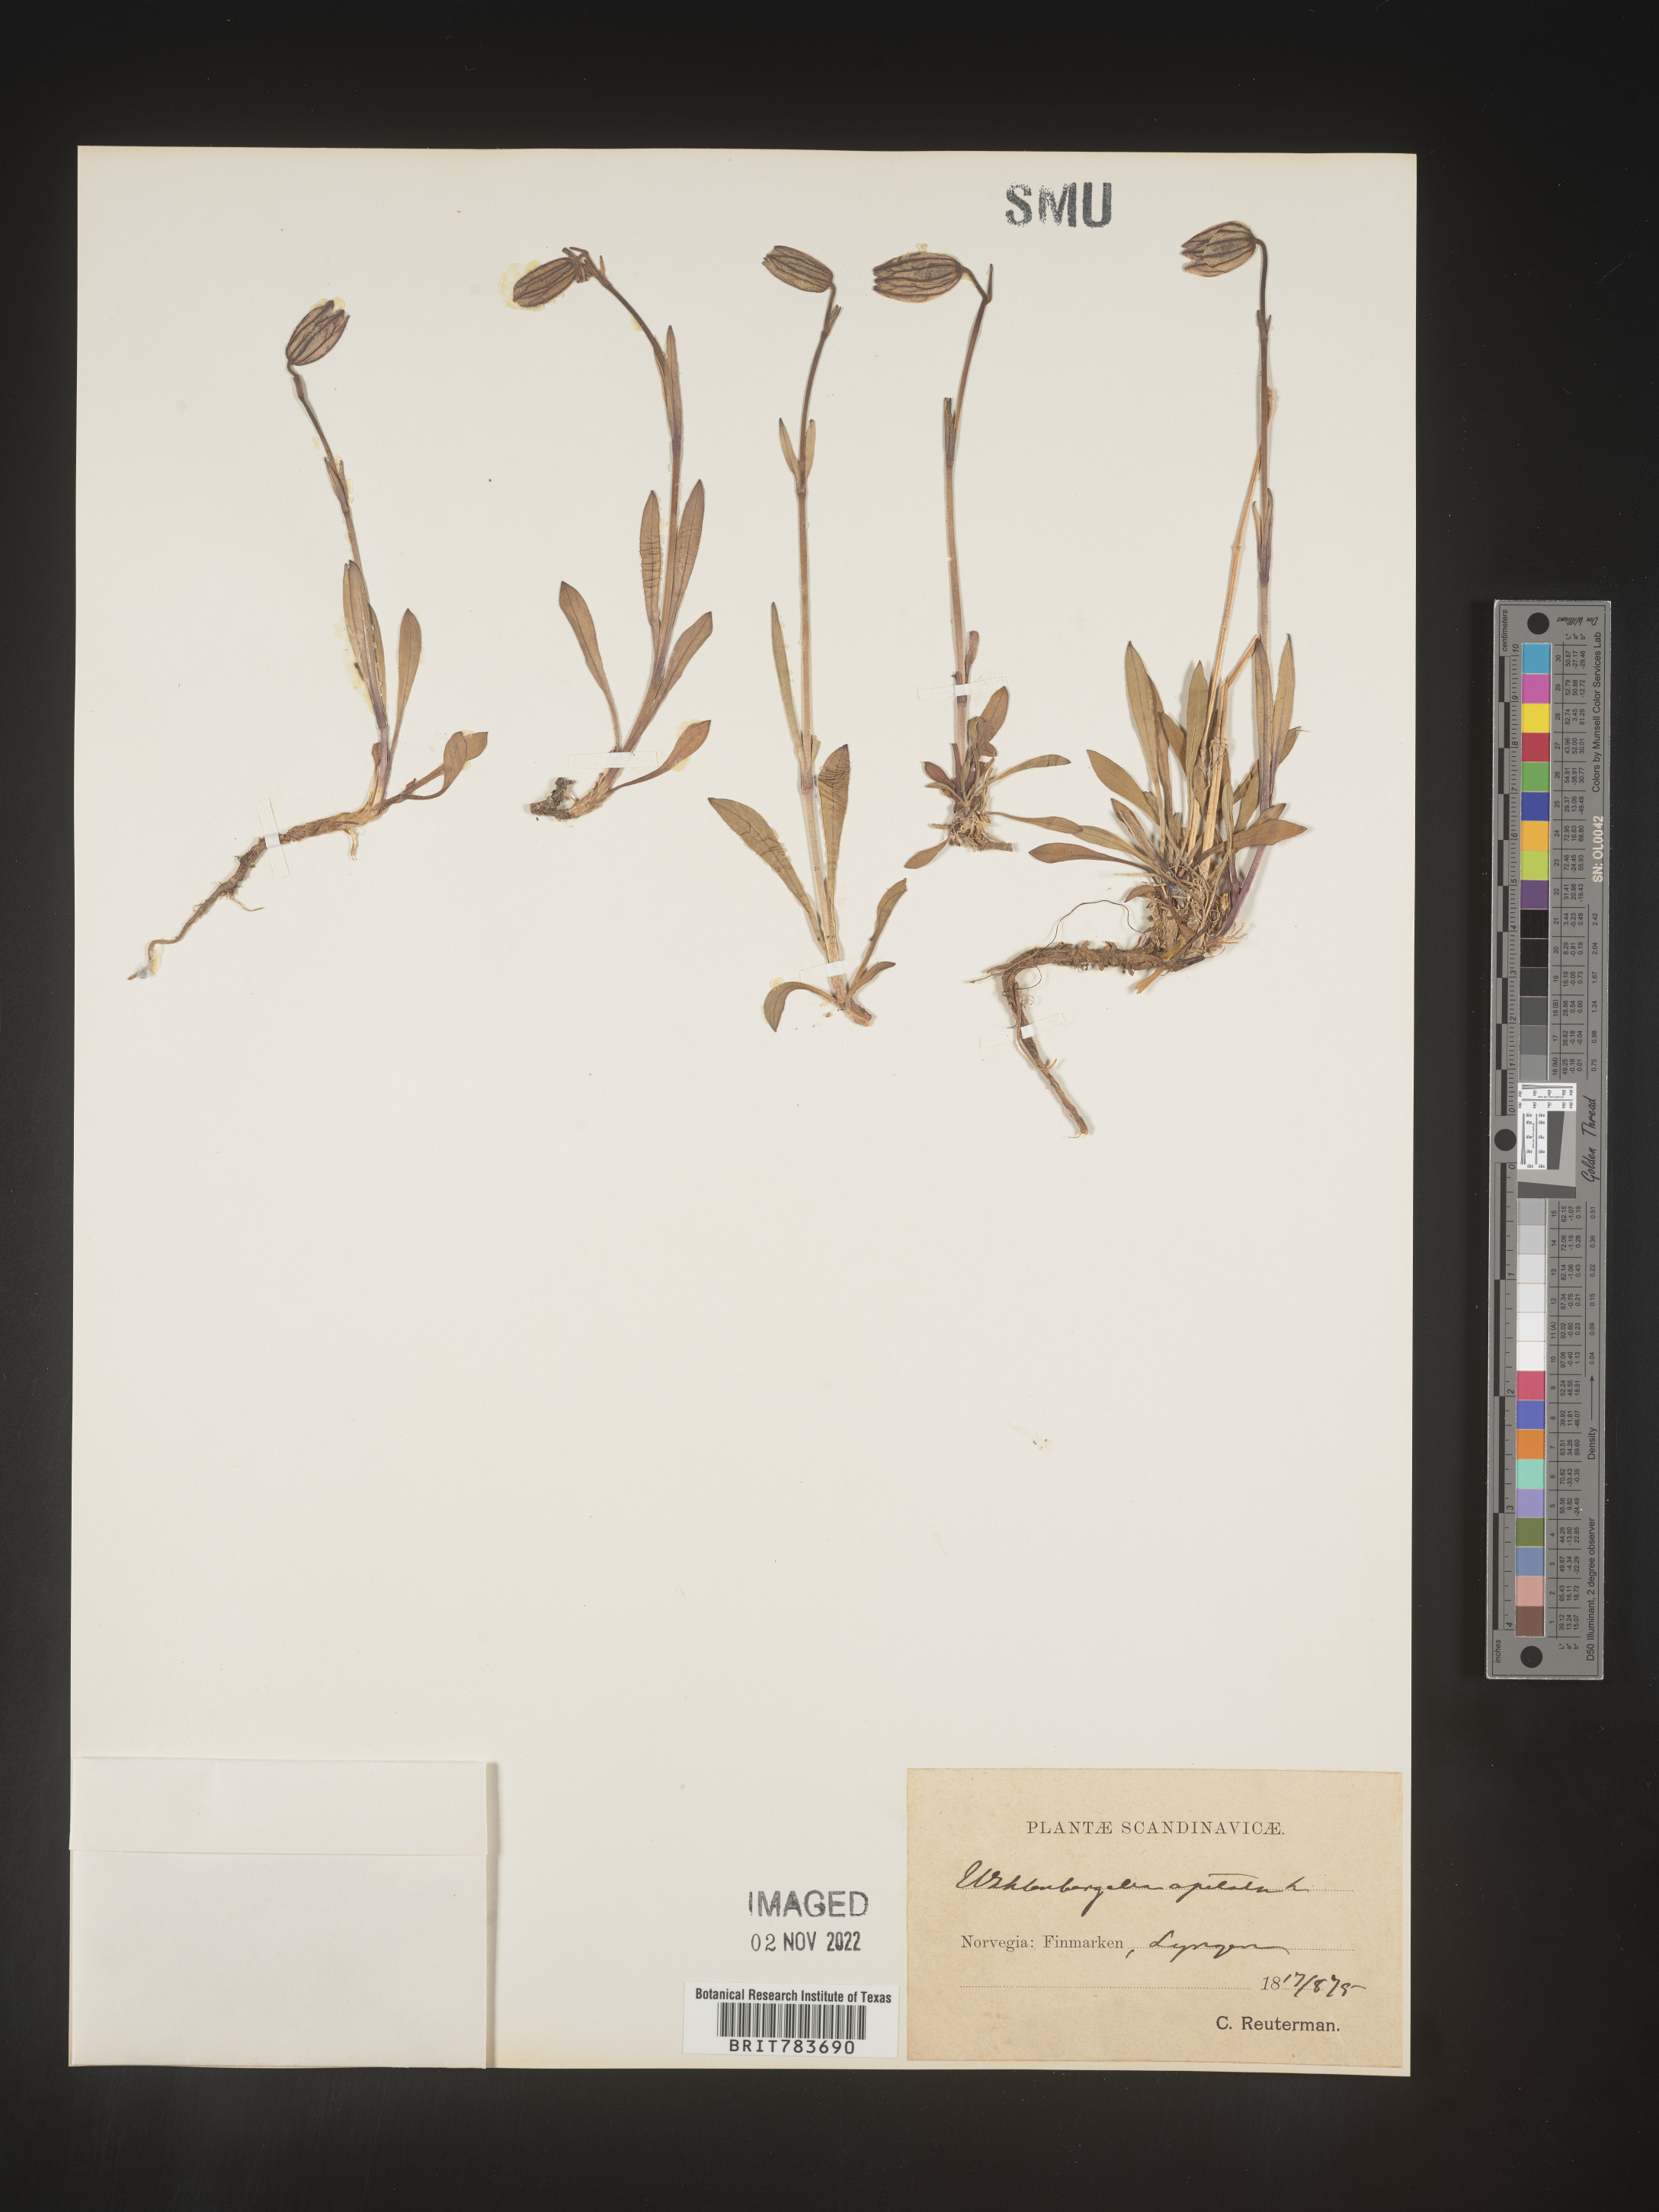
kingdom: Plantae
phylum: Tracheophyta
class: Magnoliopsida
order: Asterales
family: Campanulaceae
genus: Wahlenbergia
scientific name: Wahlenbergia
